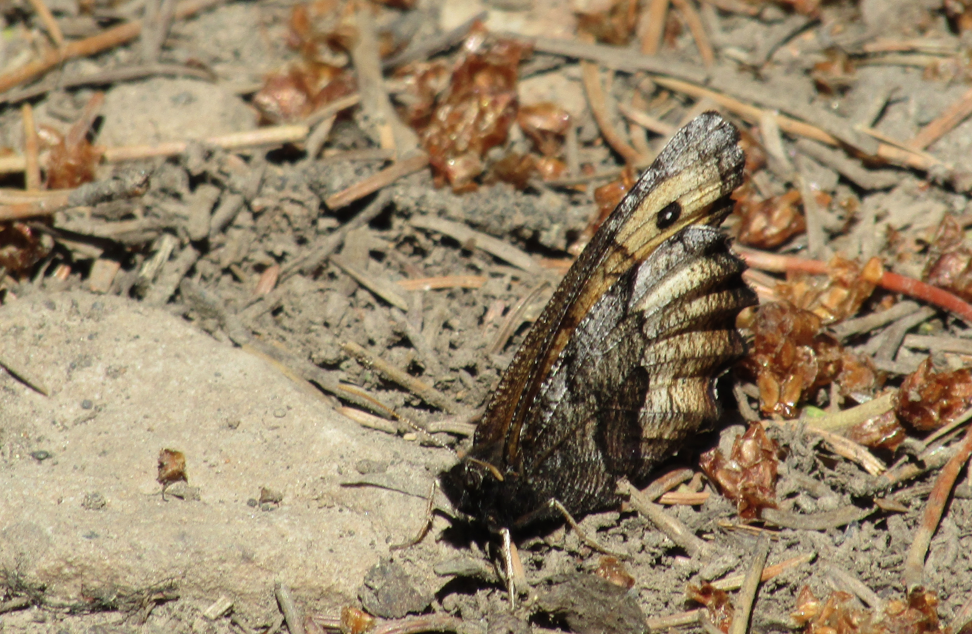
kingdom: Animalia
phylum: Arthropoda
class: Insecta
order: Lepidoptera
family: Nymphalidae
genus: Oeneis
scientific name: Oeneis macounii
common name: Macoun's Arctic
